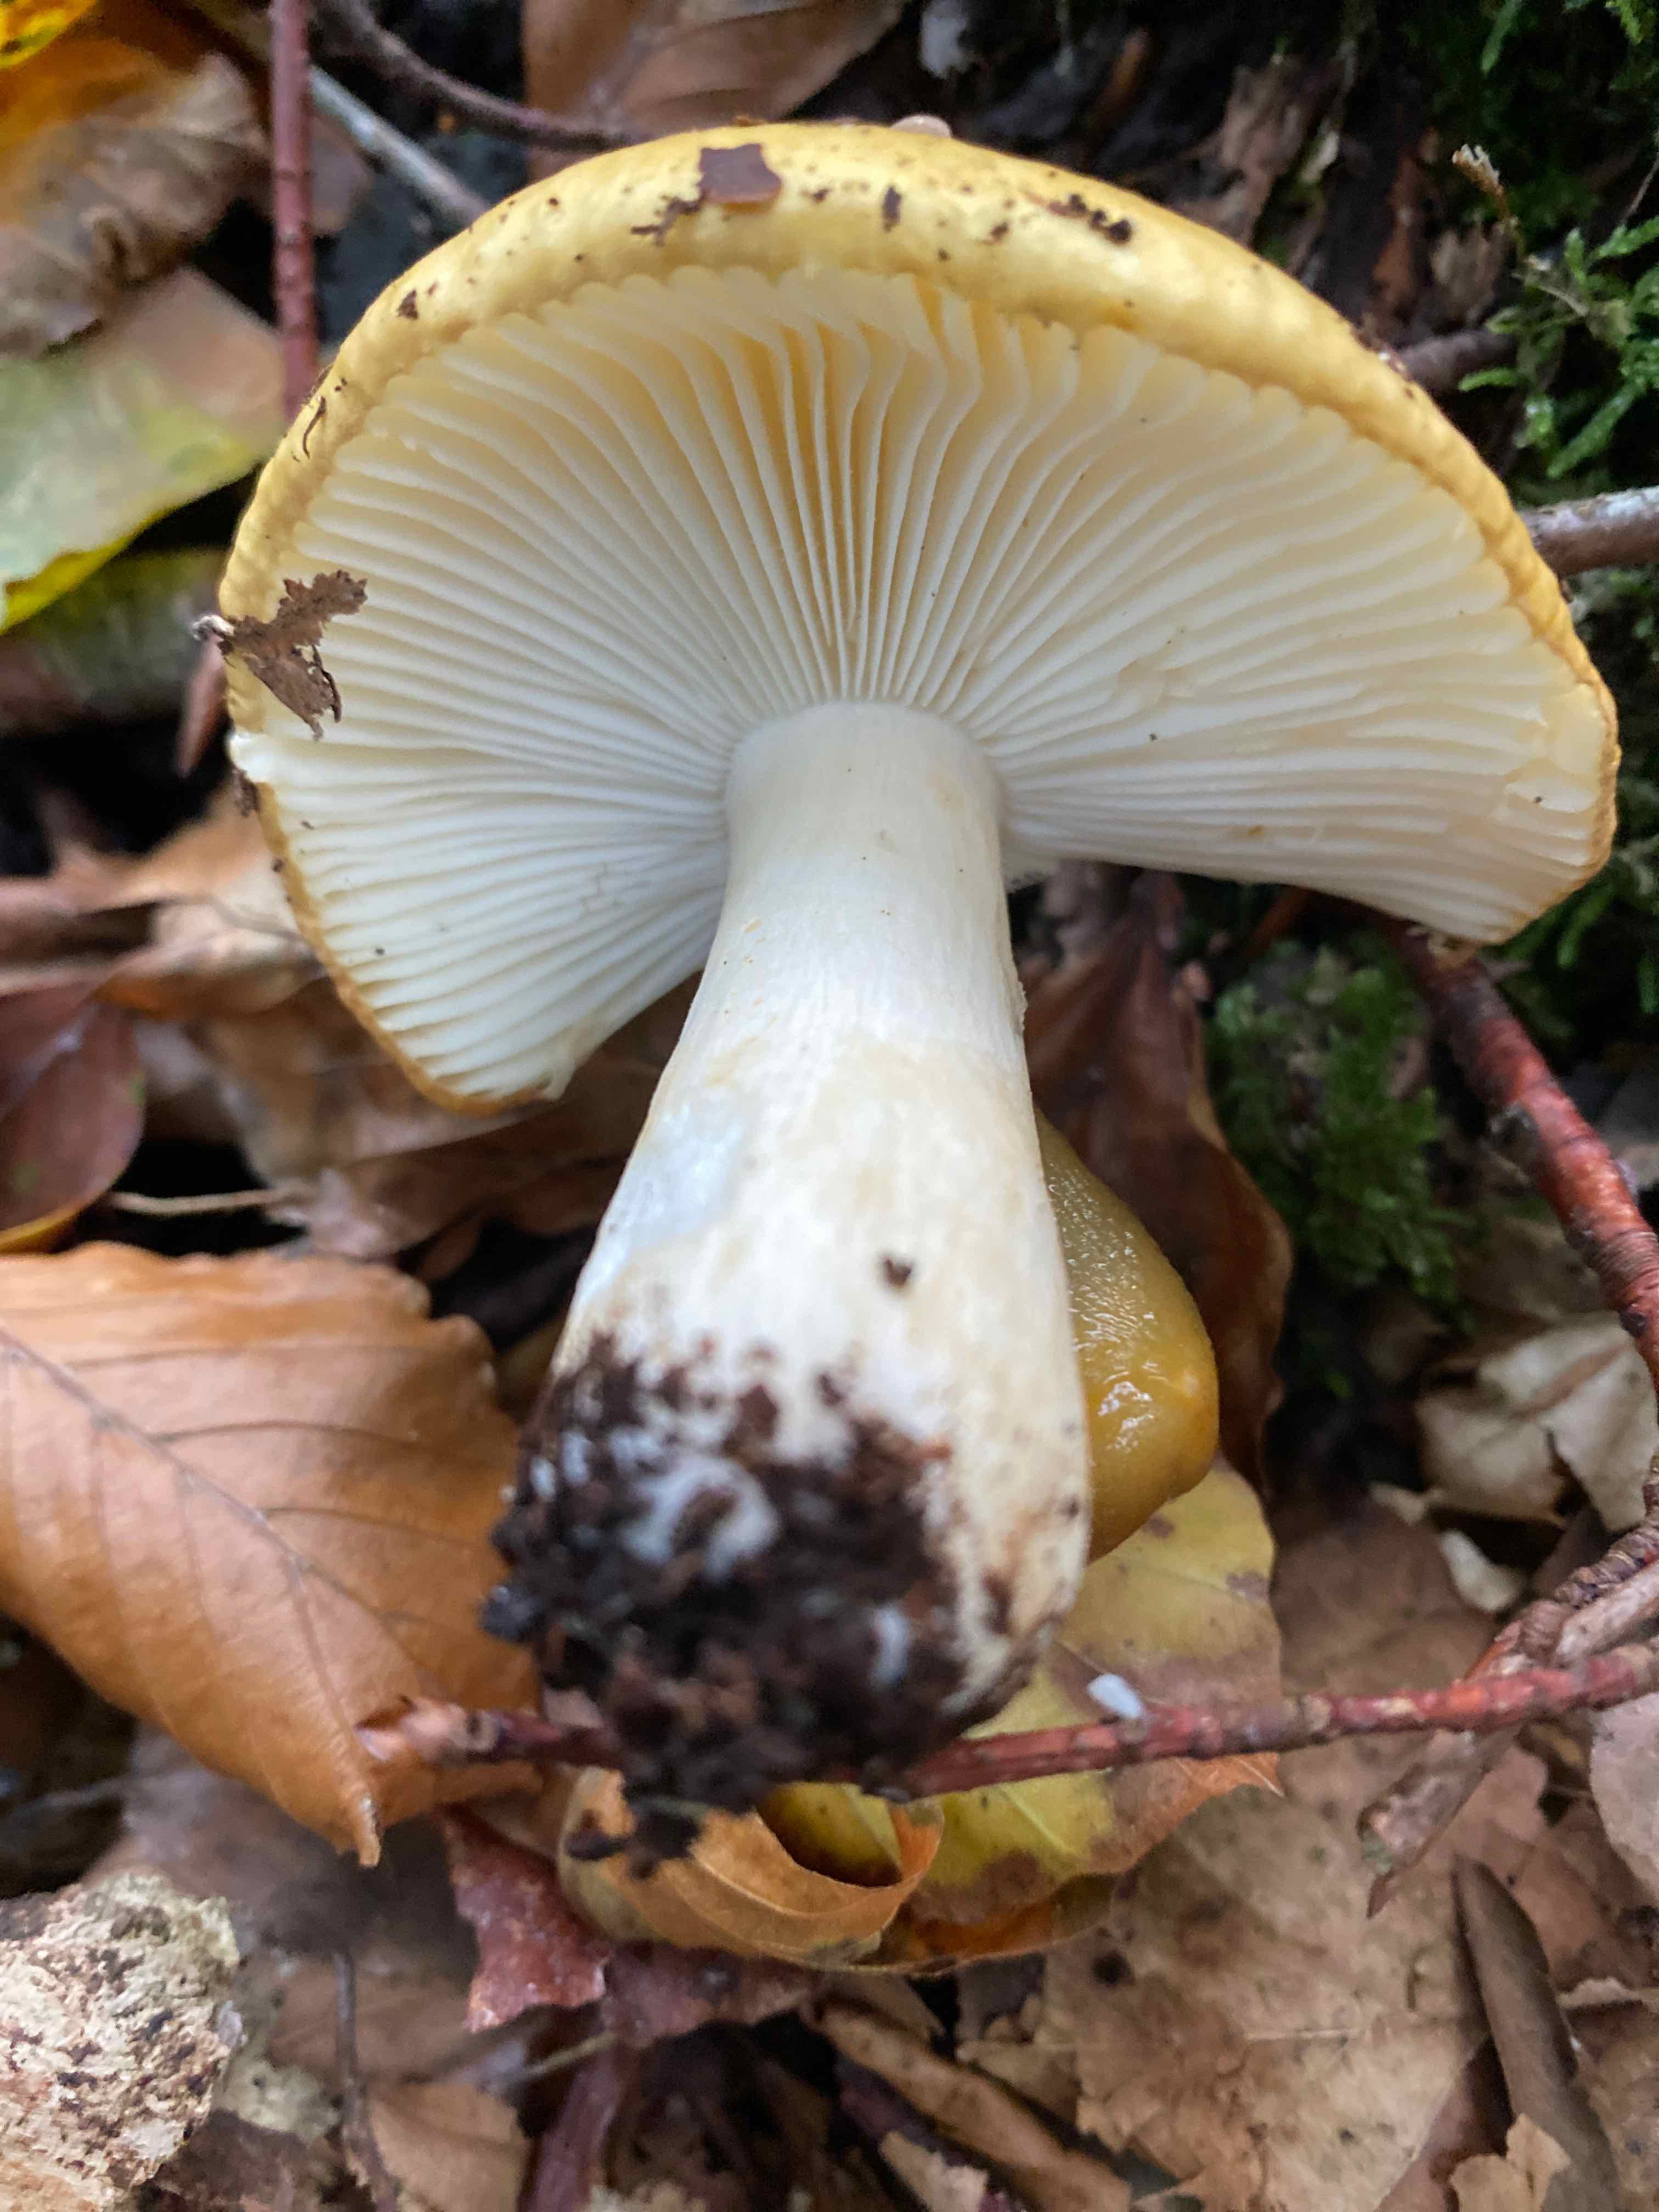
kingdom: Fungi
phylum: Basidiomycota
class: Agaricomycetes
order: Russulales
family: Russulaceae
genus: Russula
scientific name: Russula ochroleuca
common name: okkergul skørhat
